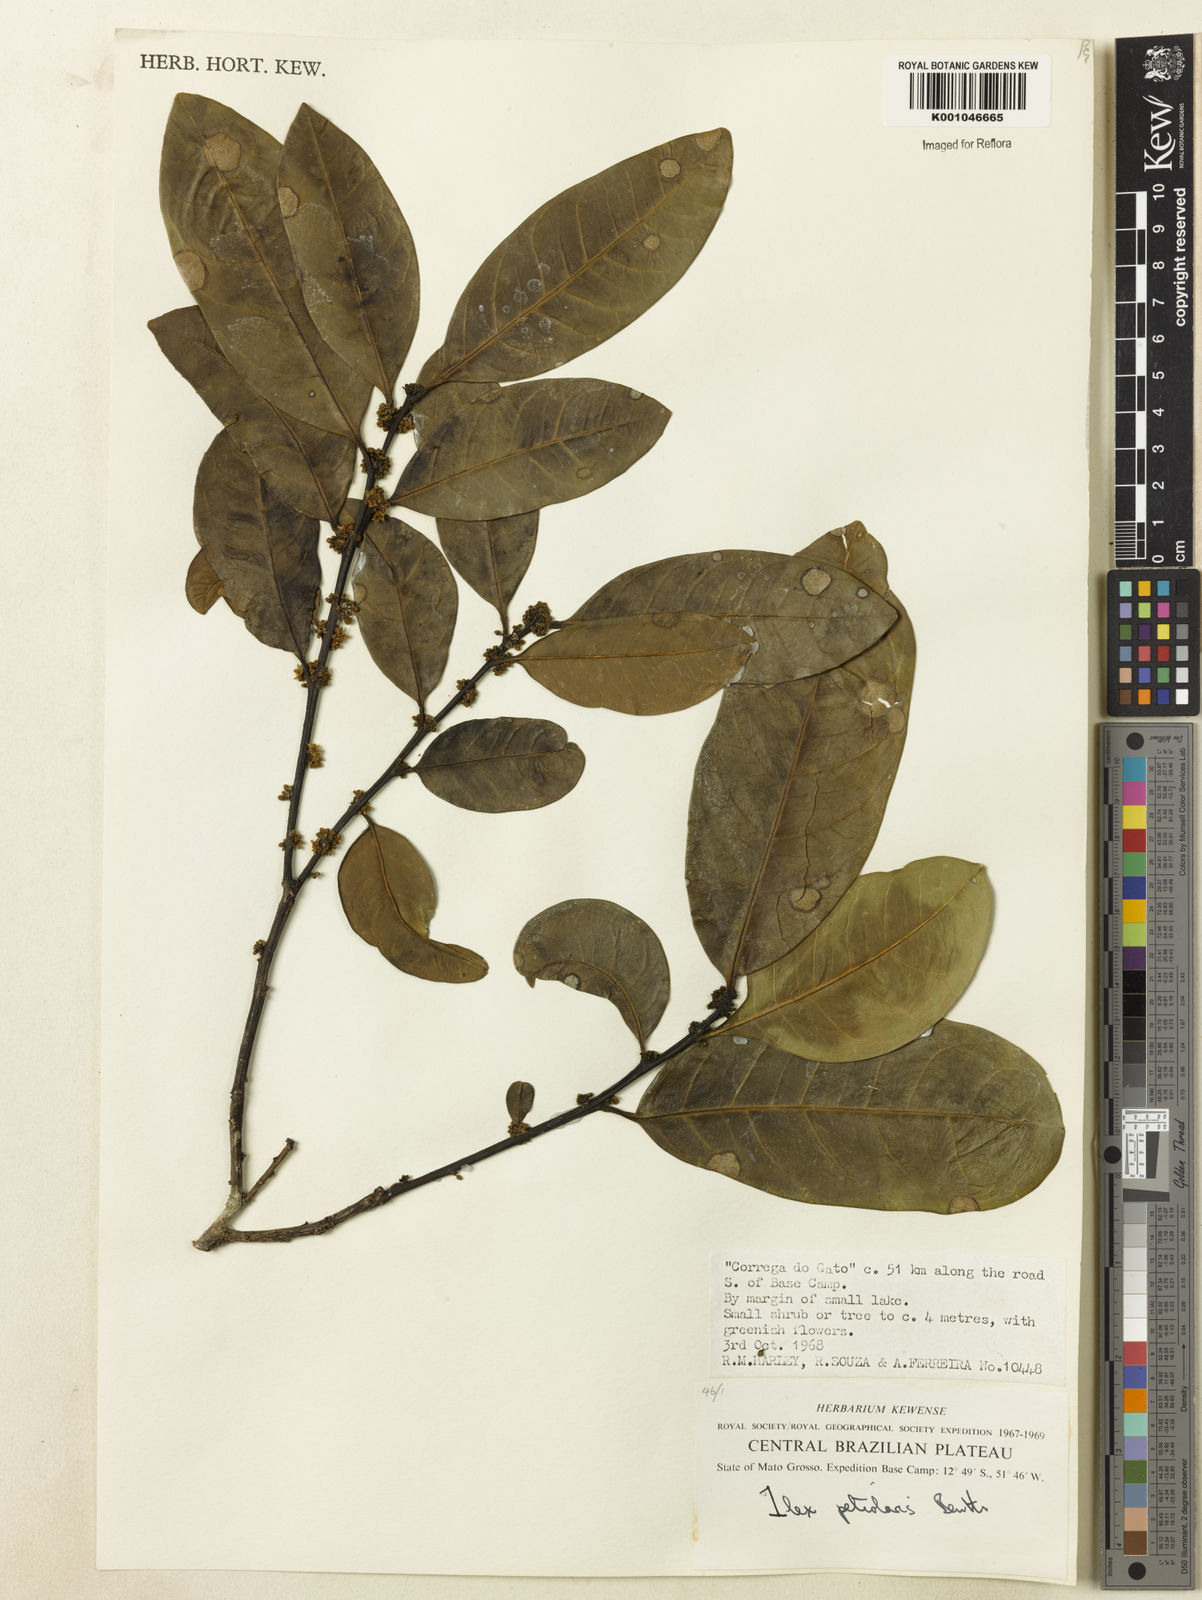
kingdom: Plantae
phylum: Tracheophyta
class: Magnoliopsida
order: Aquifoliales
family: Aquifoliaceae
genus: Ilex
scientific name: Ilex lundii
